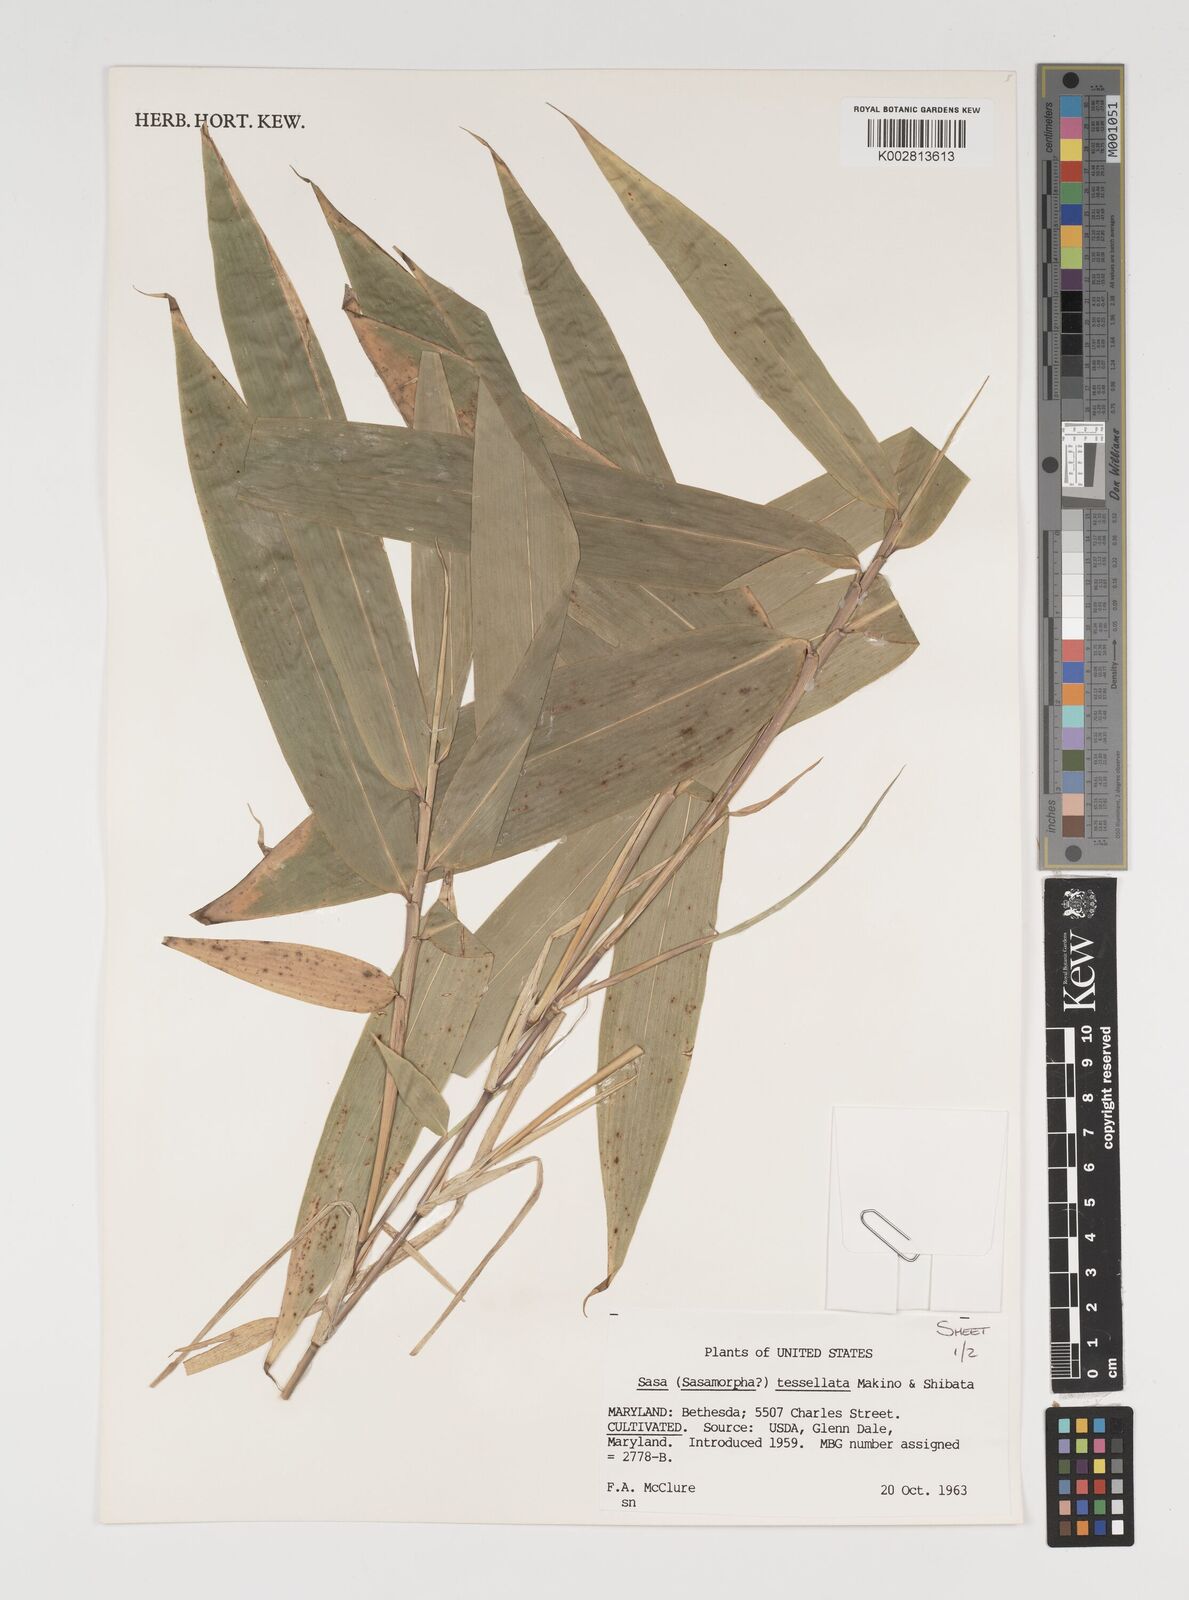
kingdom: Plantae
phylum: Tracheophyta
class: Liliopsida
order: Poales
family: Poaceae
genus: Indocalamus
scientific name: Indocalamus tessellatus
